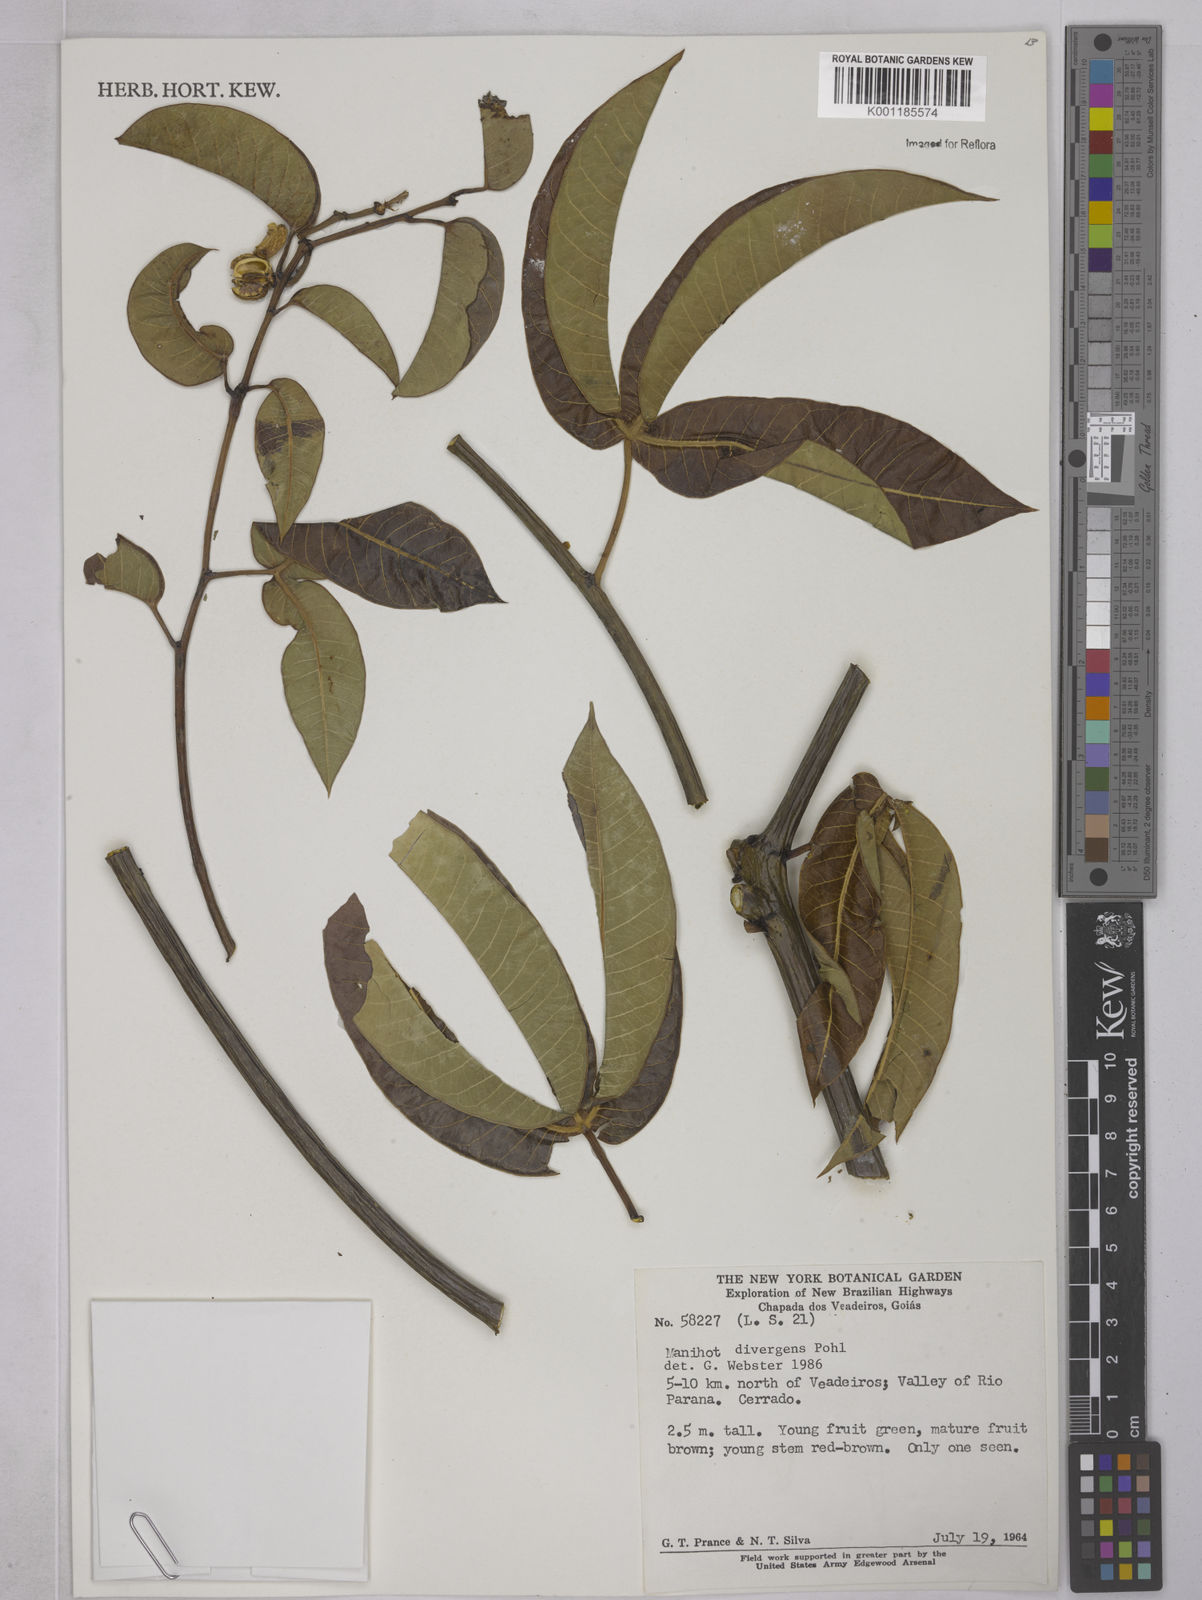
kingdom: Plantae
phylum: Tracheophyta
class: Magnoliopsida
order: Malpighiales
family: Euphorbiaceae
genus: Manihot
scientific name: Manihot divergens
